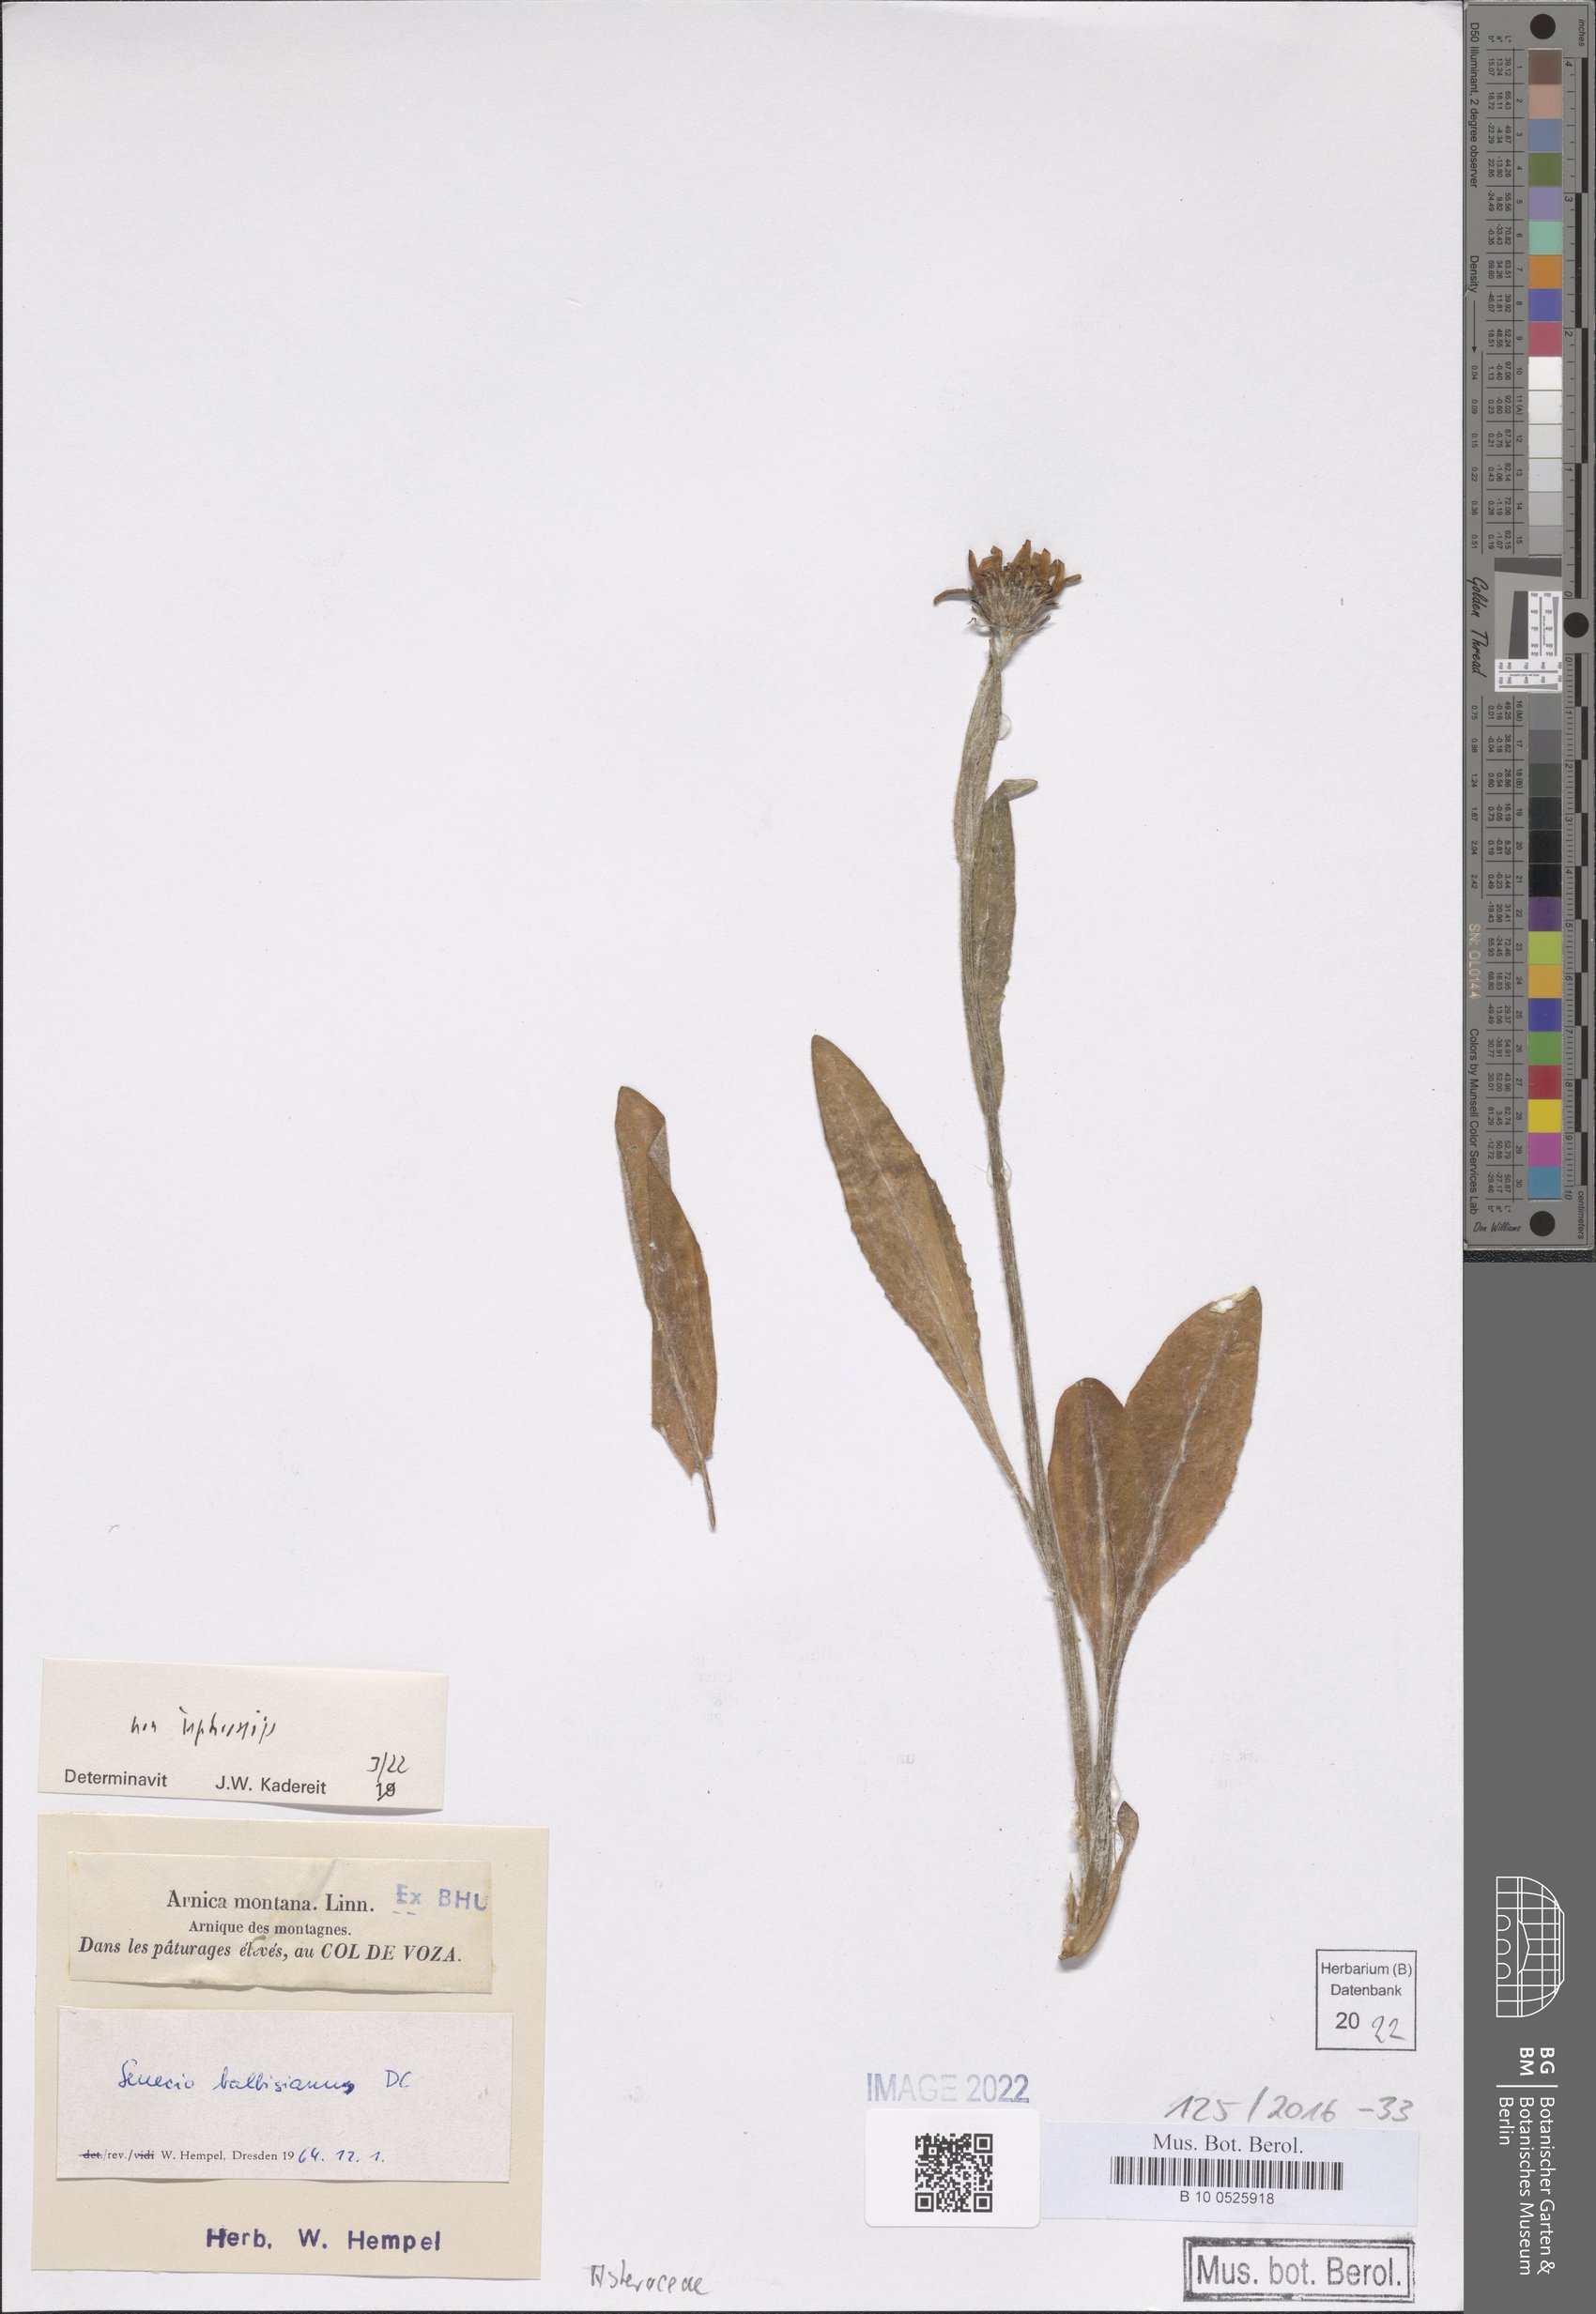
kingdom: Plantae
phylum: Tracheophyta
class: Magnoliopsida
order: Asterales
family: Asteraceae
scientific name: Asteraceae
